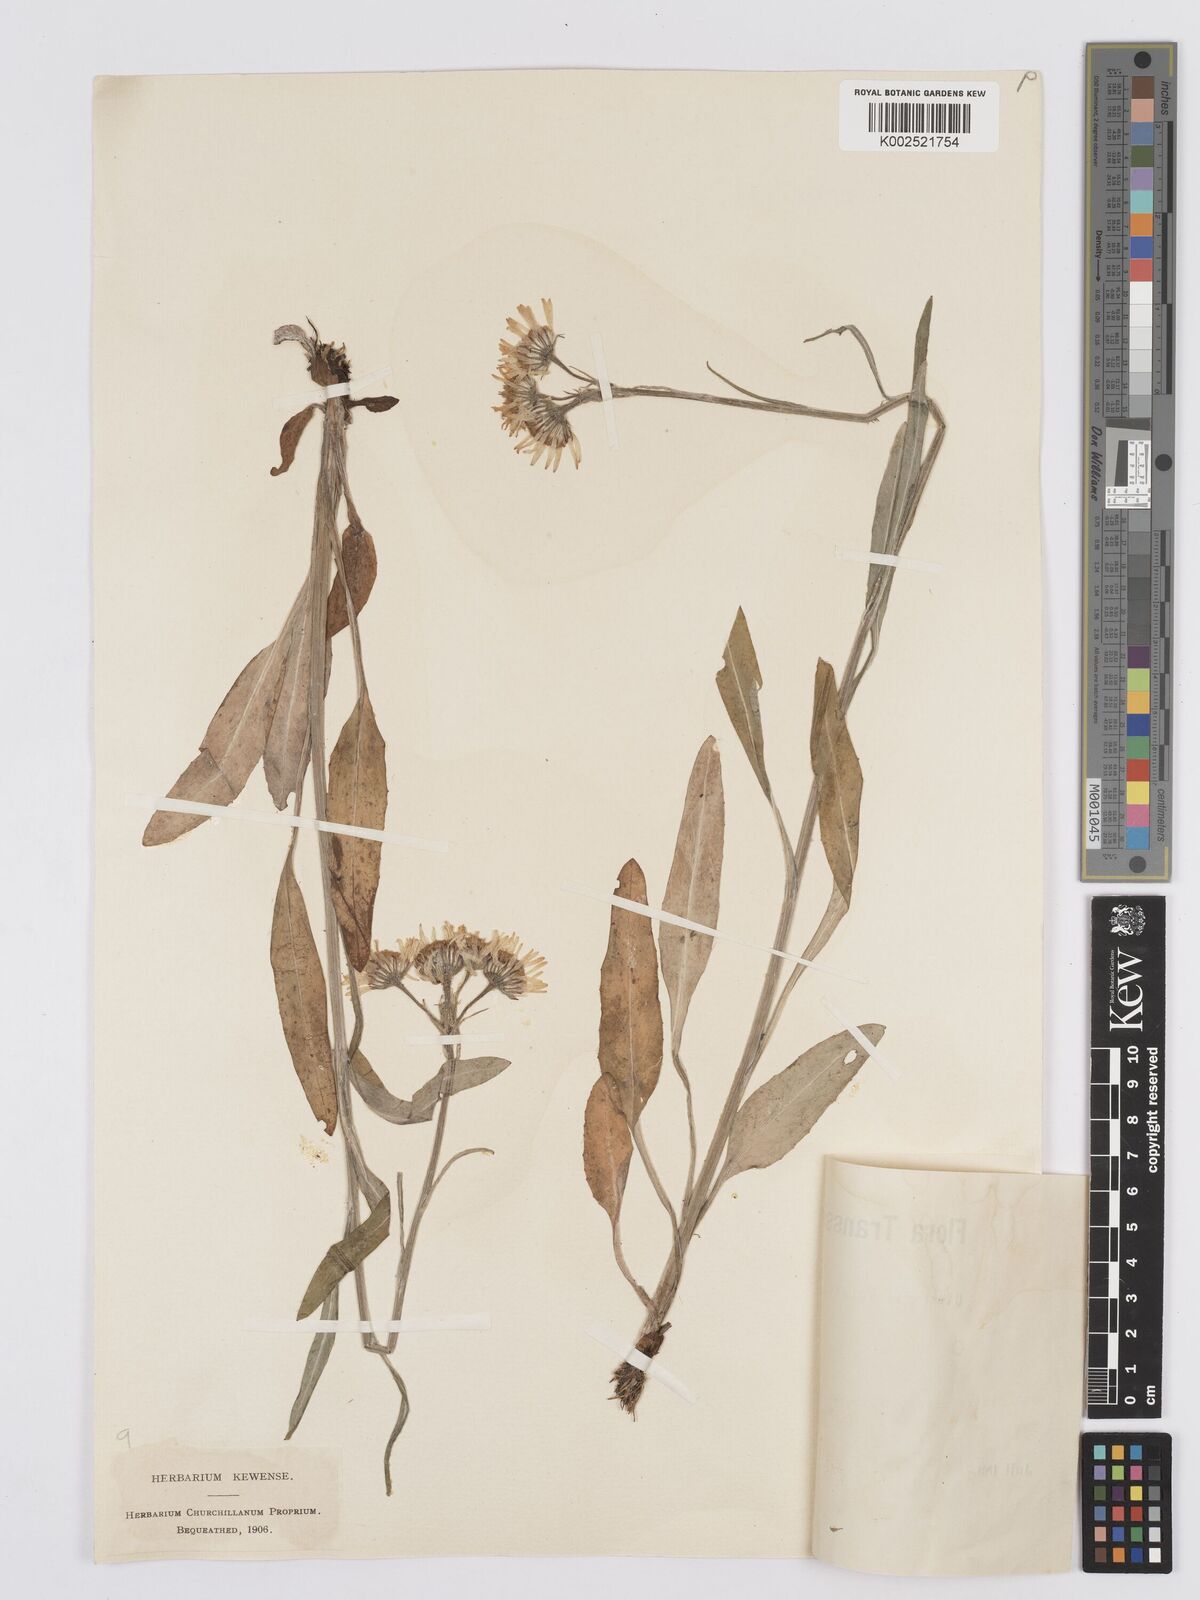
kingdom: Plantae
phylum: Tracheophyta
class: Magnoliopsida
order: Asterales
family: Asteraceae
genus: Tephroseris
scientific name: Tephroseris papposa
